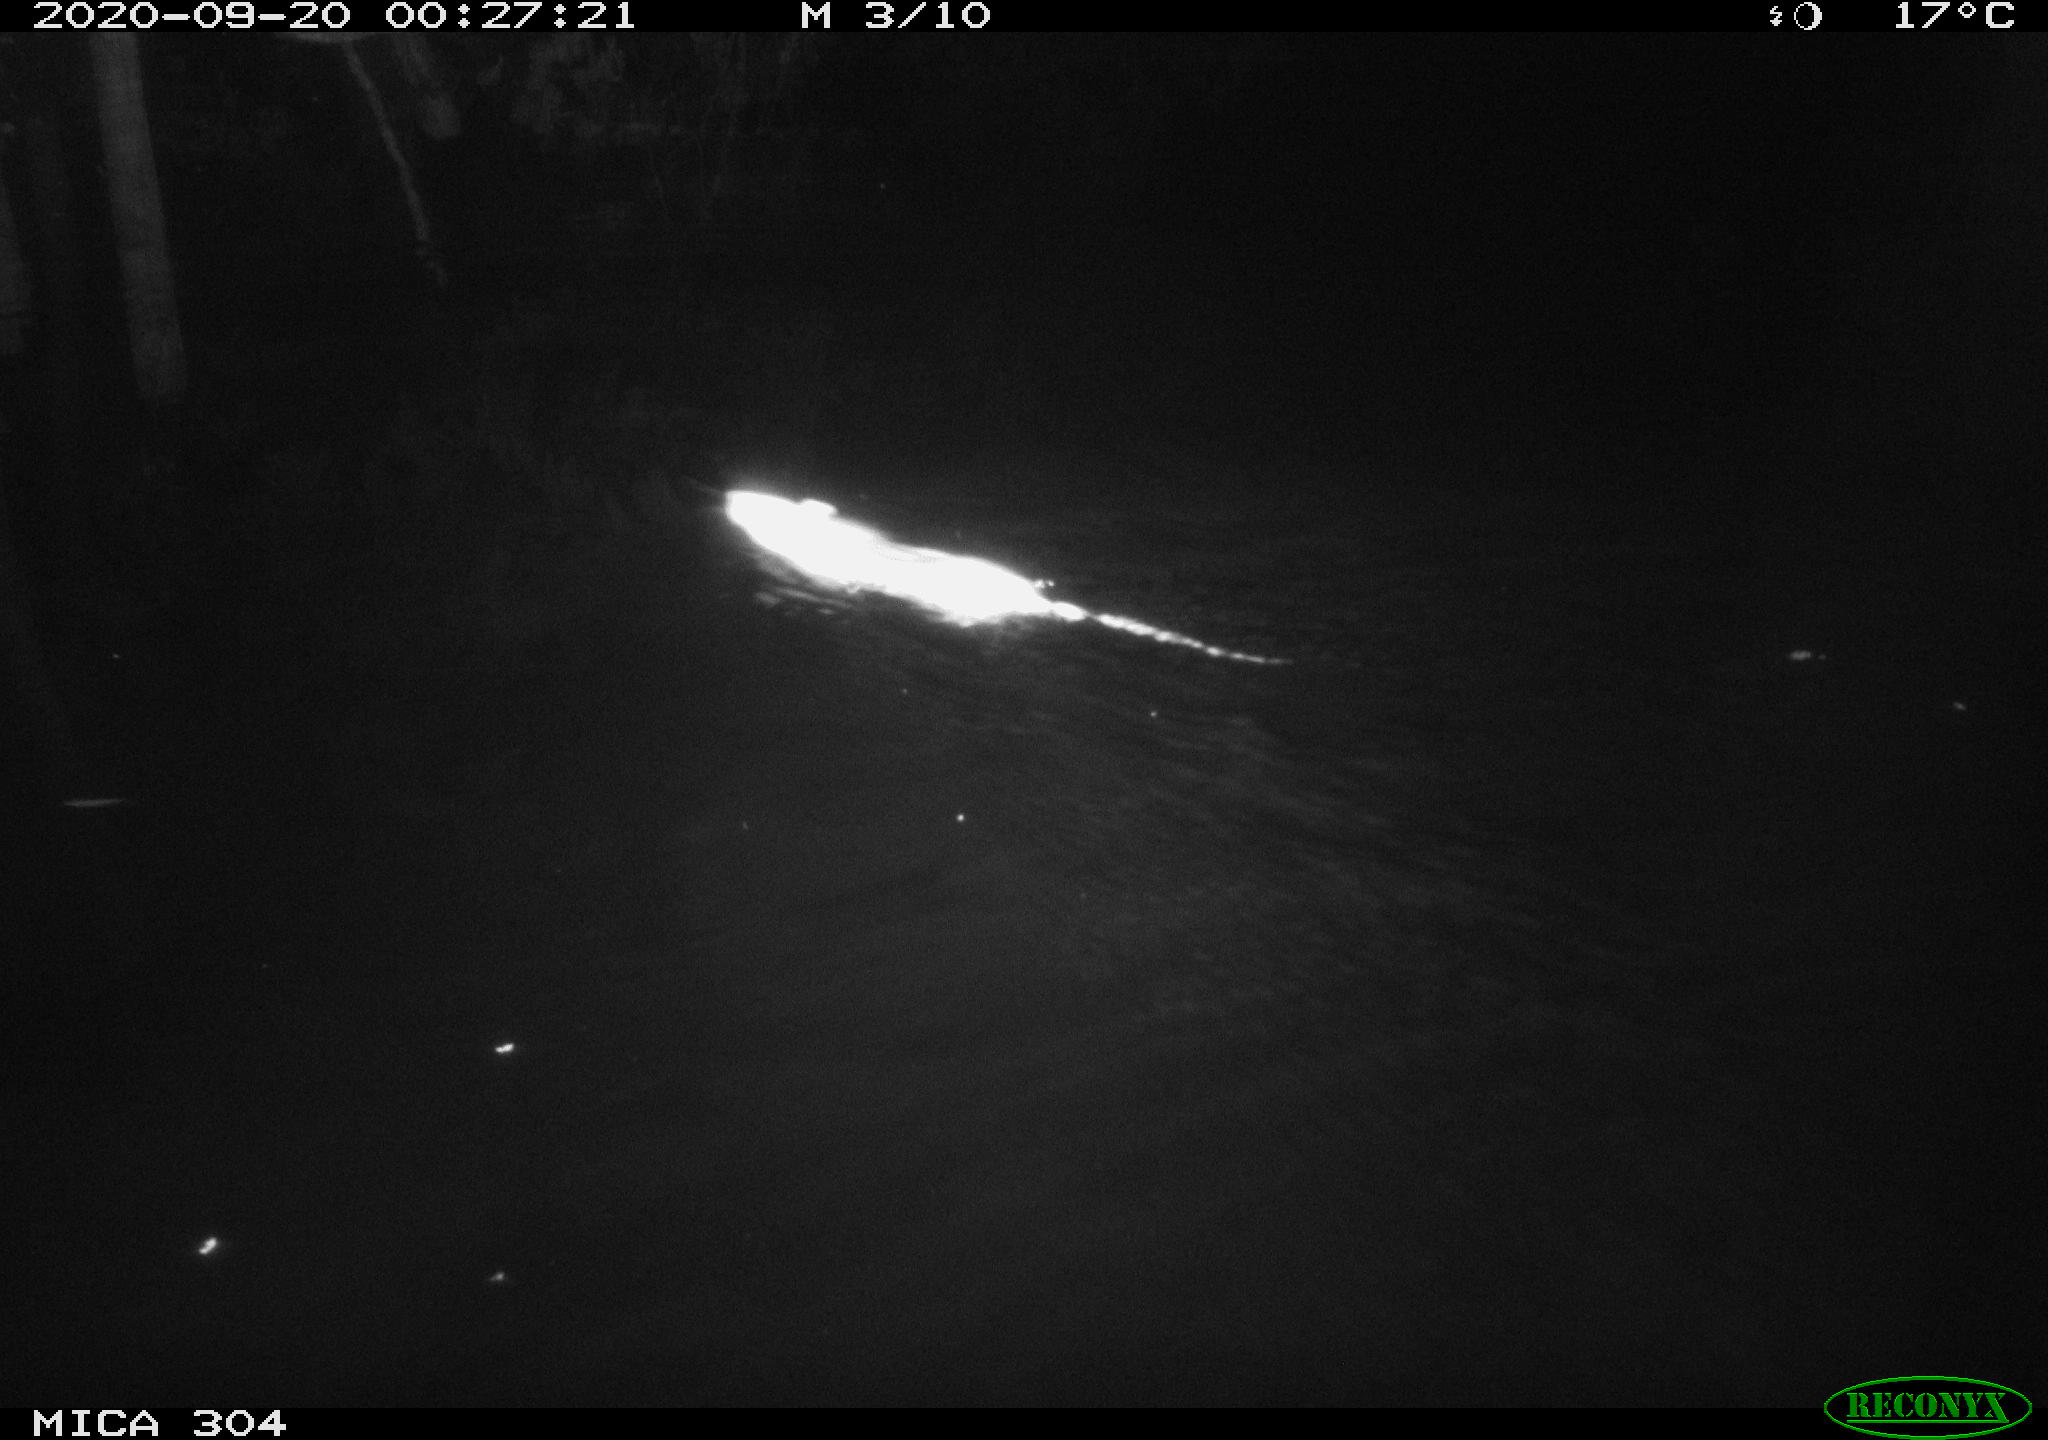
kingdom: Animalia
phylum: Chordata
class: Mammalia
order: Rodentia
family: Muridae
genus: Rattus
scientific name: Rattus norvegicus
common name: Brown rat
